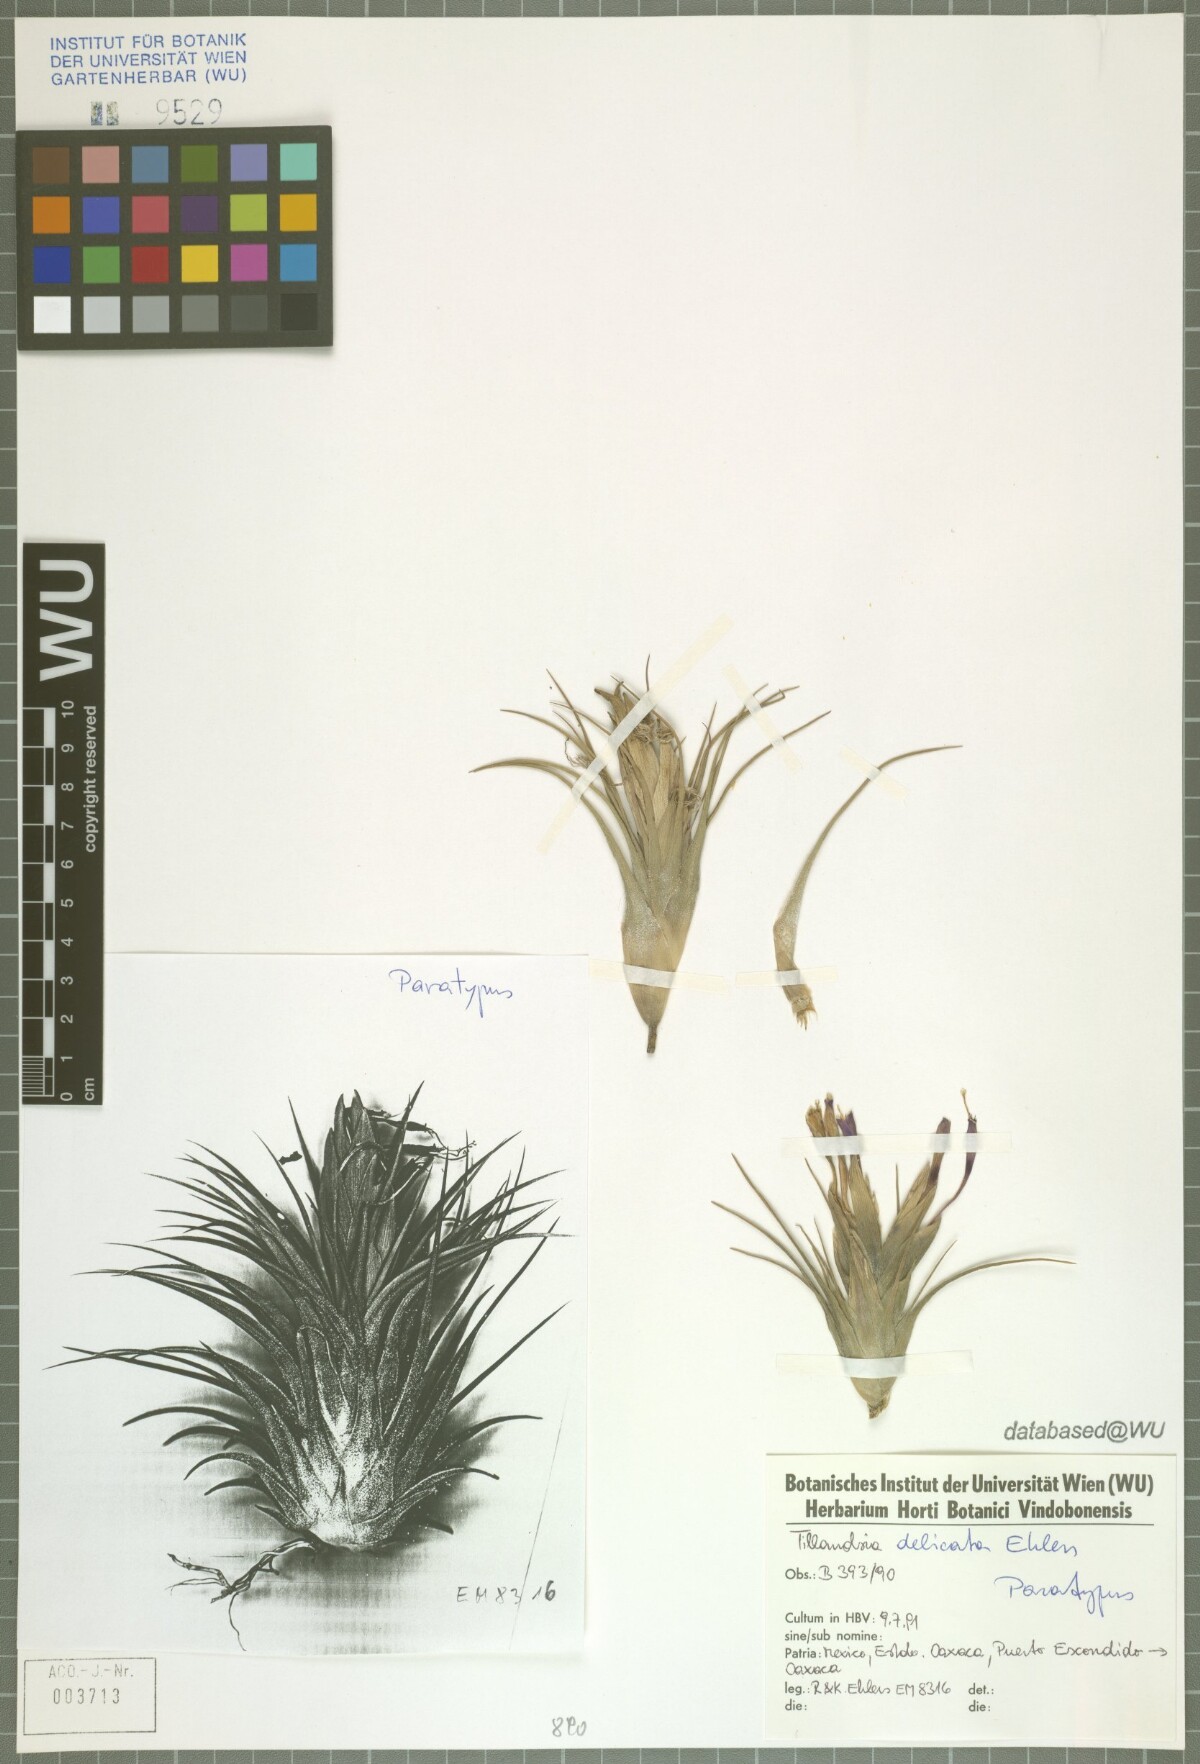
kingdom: Plantae
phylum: Tracheophyta
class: Liliopsida
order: Poales
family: Bromeliaceae
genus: Tillandsia
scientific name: Tillandsia delicata
